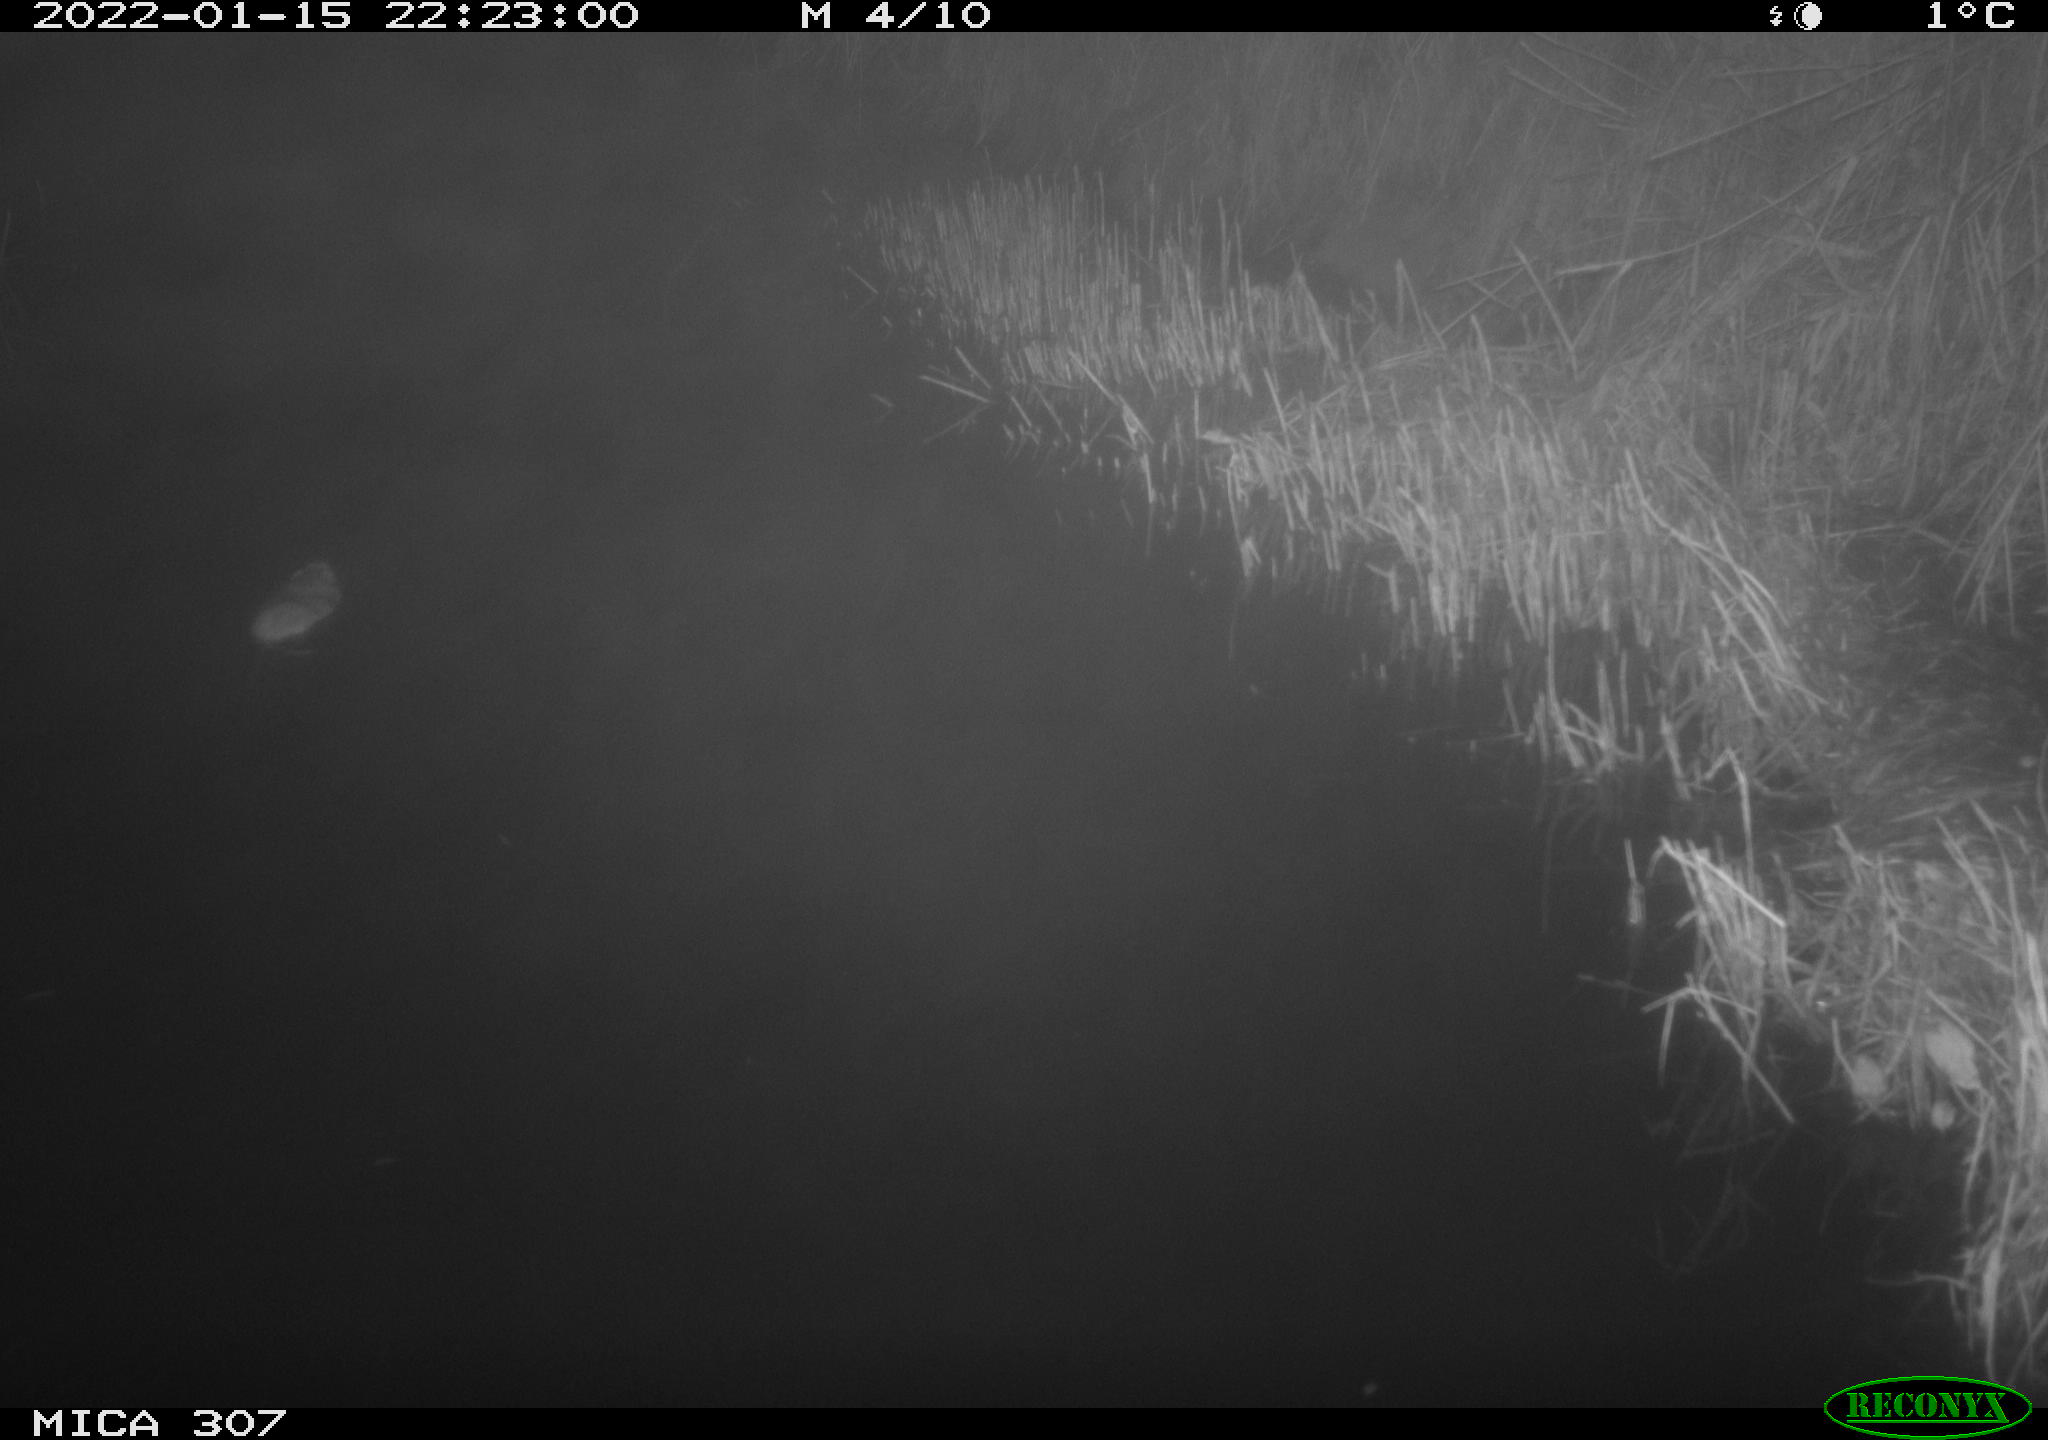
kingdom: Animalia
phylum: Chordata
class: Mammalia
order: Rodentia
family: Muridae
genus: Rattus
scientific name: Rattus norvegicus
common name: Brown rat
